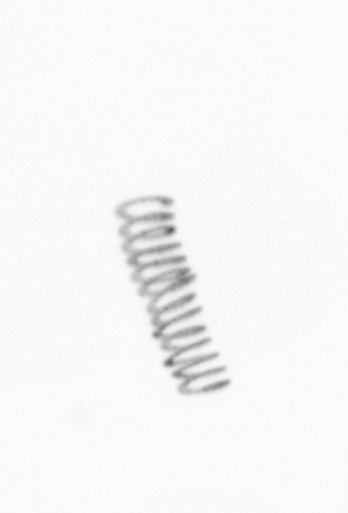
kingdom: Chromista
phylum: Ochrophyta
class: Bacillariophyceae
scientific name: Bacillariophyceae
